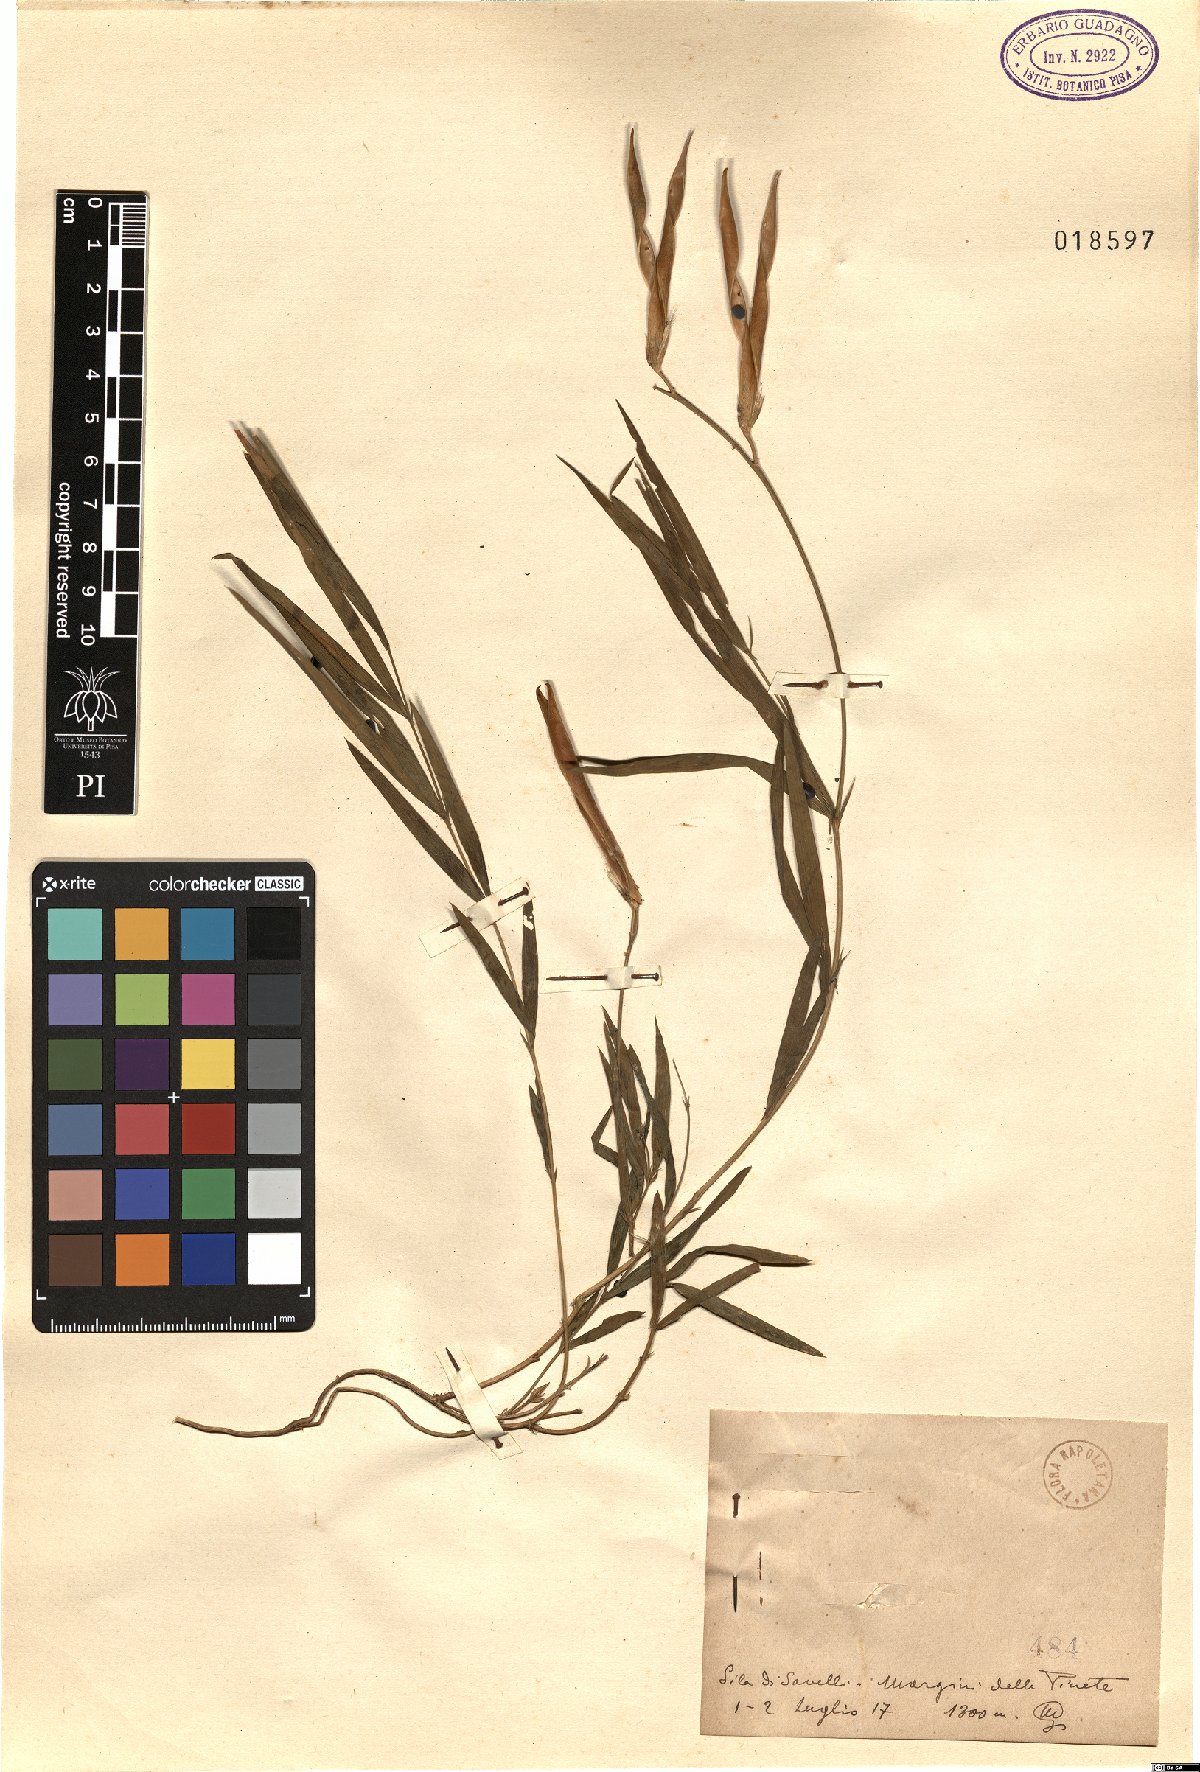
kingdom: Plantae
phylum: Tracheophyta
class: Magnoliopsida
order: Fabales
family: Fabaceae
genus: Lathyrus
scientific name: Lathyrus
